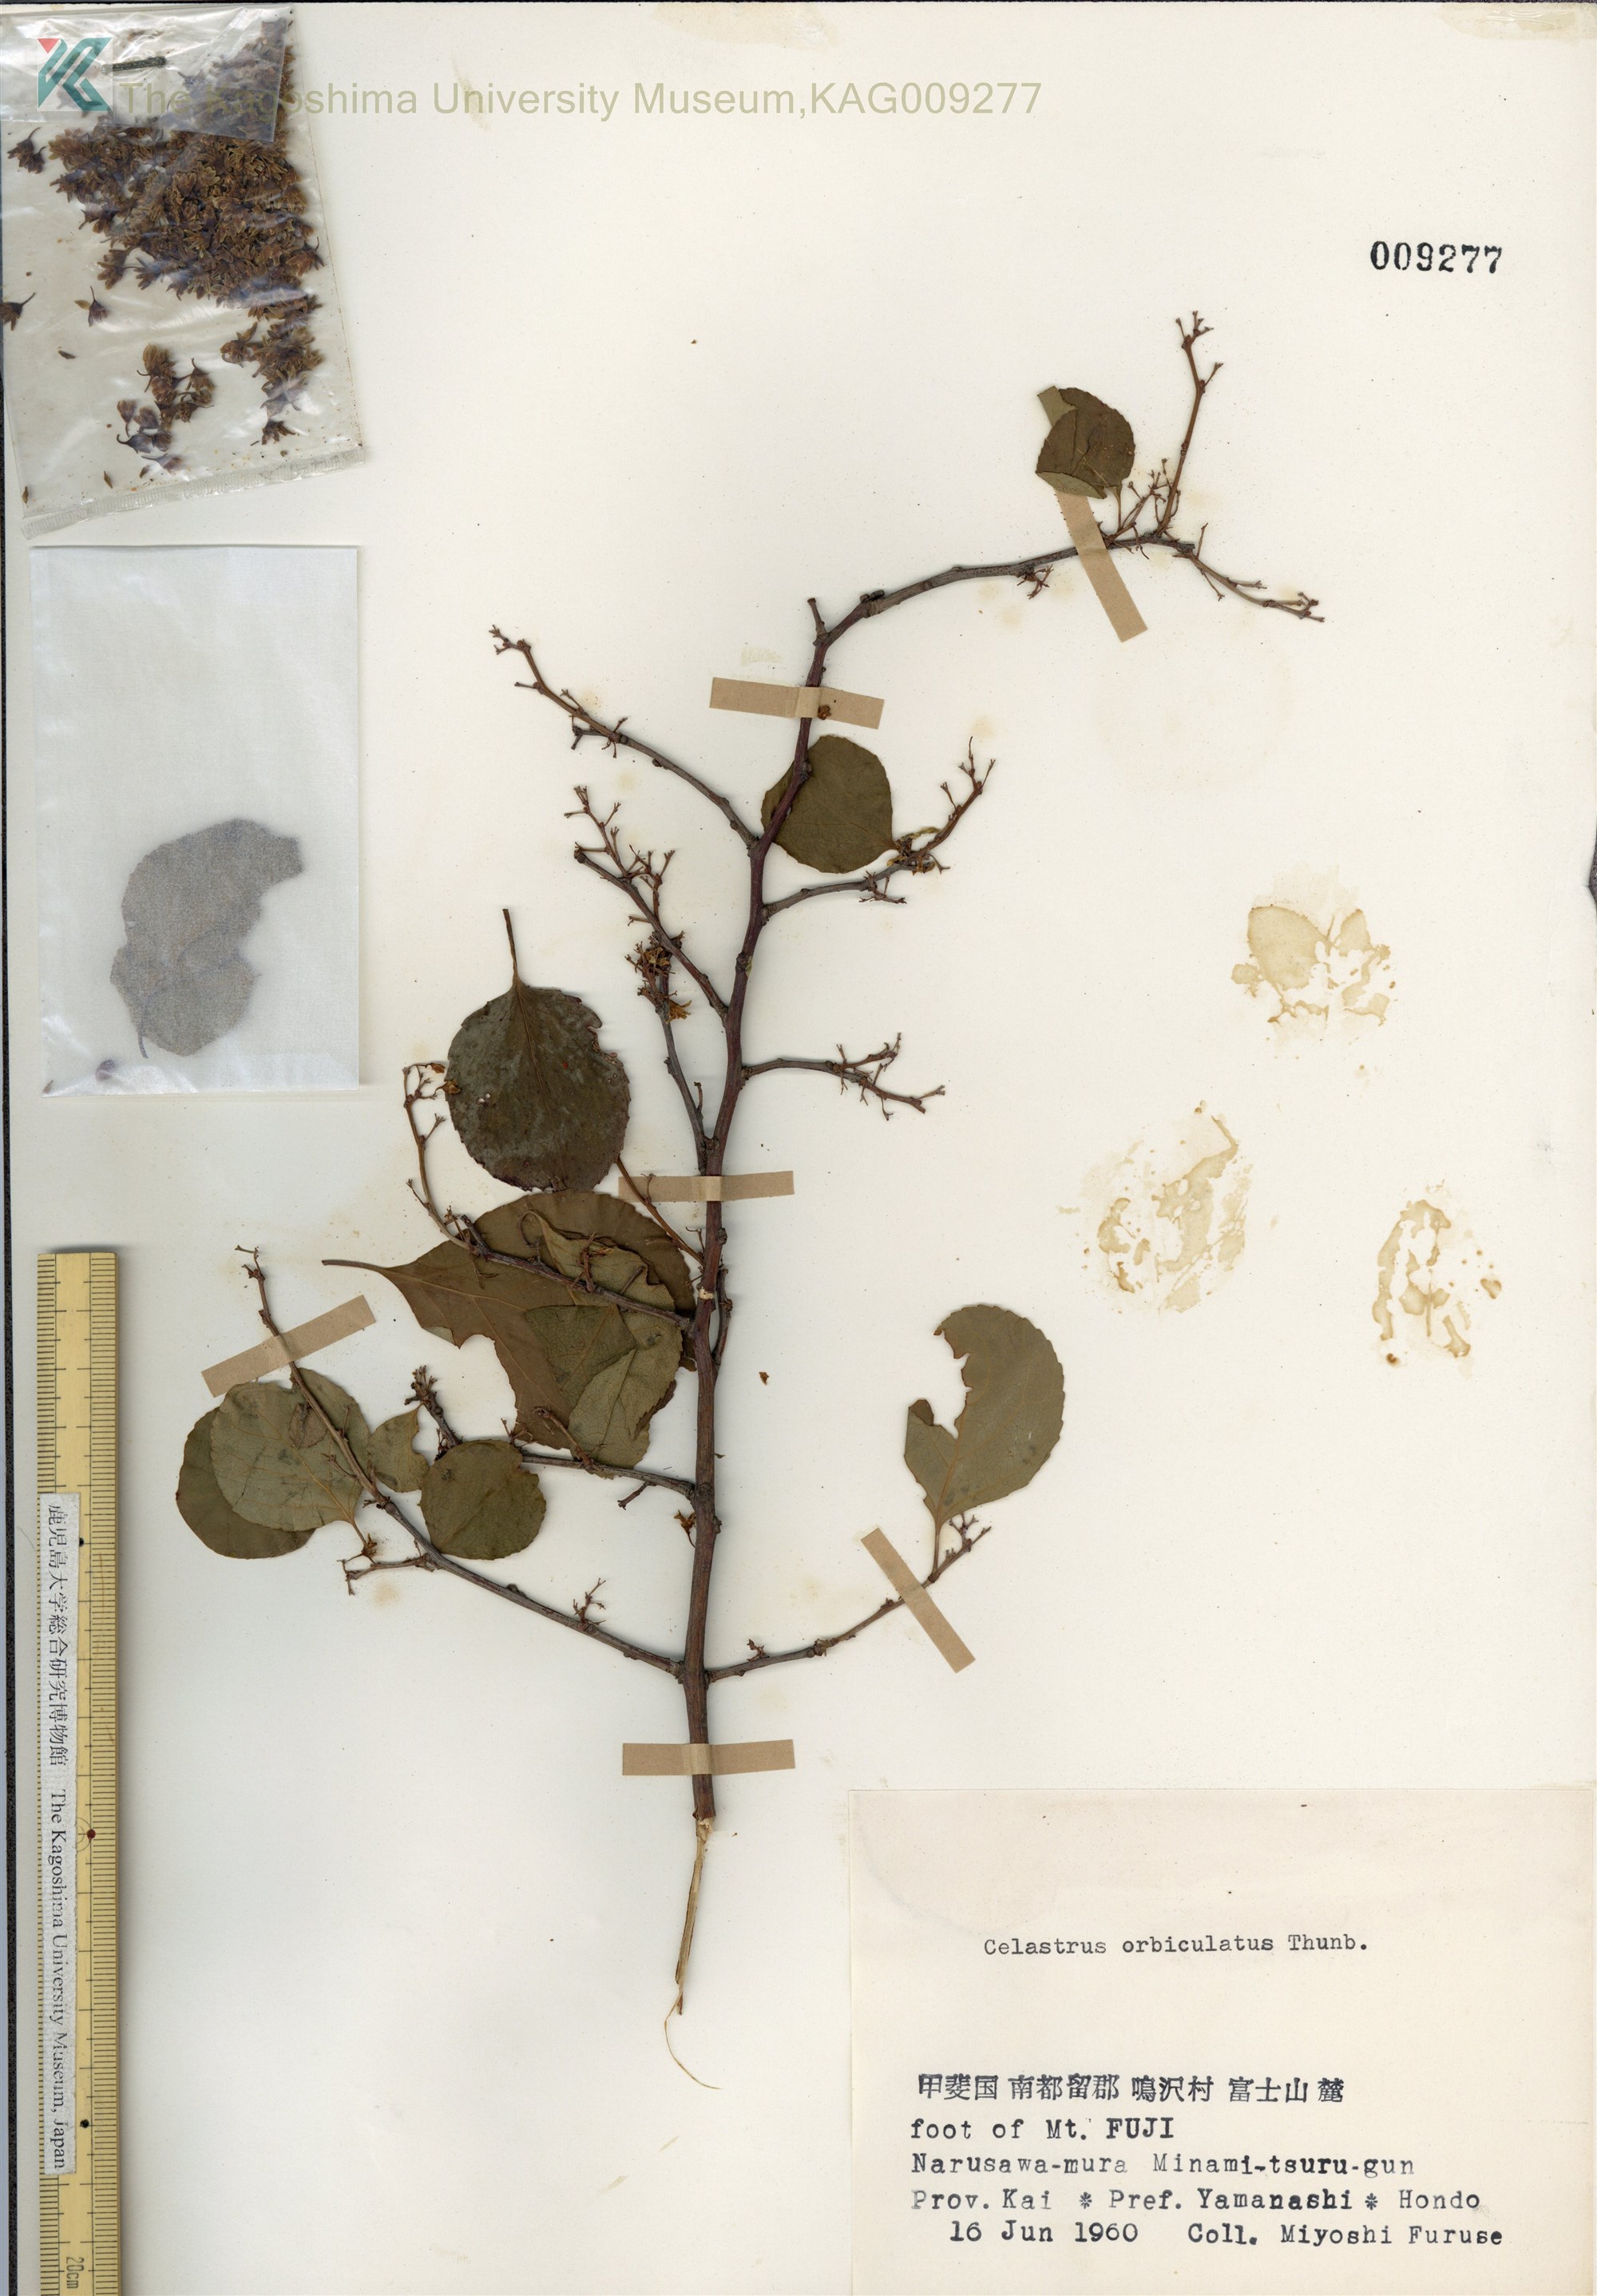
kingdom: Plantae
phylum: Tracheophyta
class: Magnoliopsida
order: Celastrales
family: Celastraceae
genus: Celastrus
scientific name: Celastrus orbiculatus
